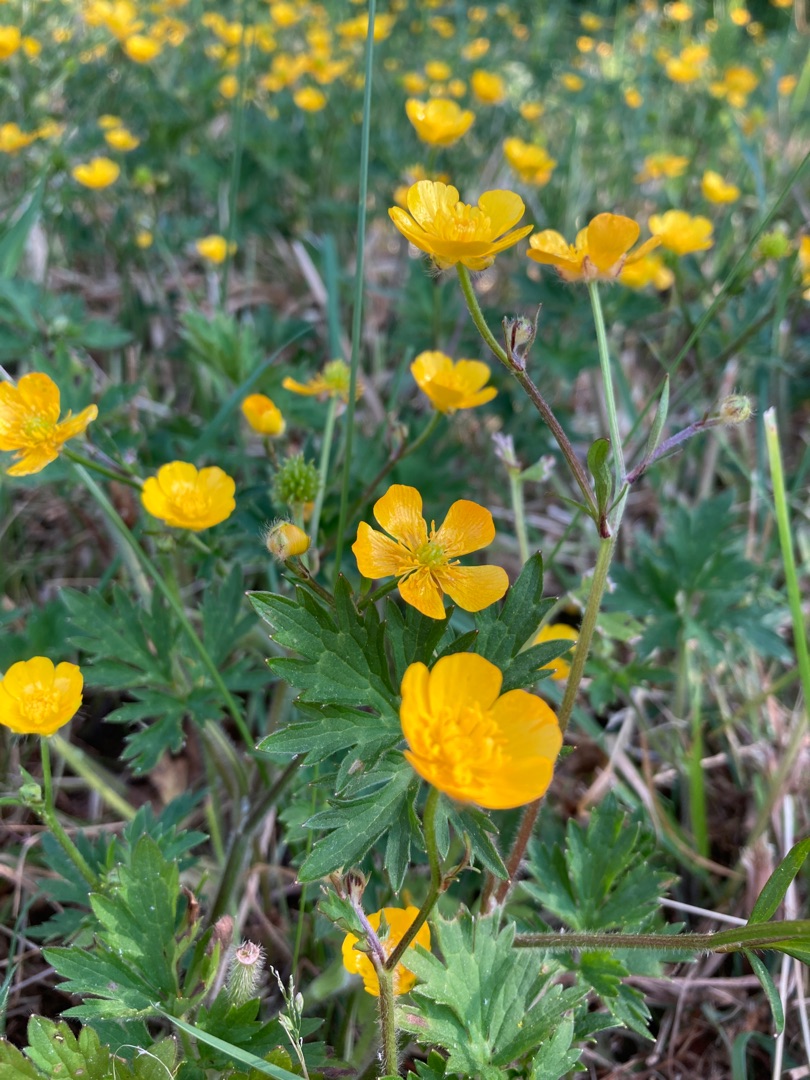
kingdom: Plantae
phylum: Tracheophyta
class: Magnoliopsida
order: Ranunculales
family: Ranunculaceae
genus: Ranunculus
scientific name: Ranunculus repens
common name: Lav ranunkel
